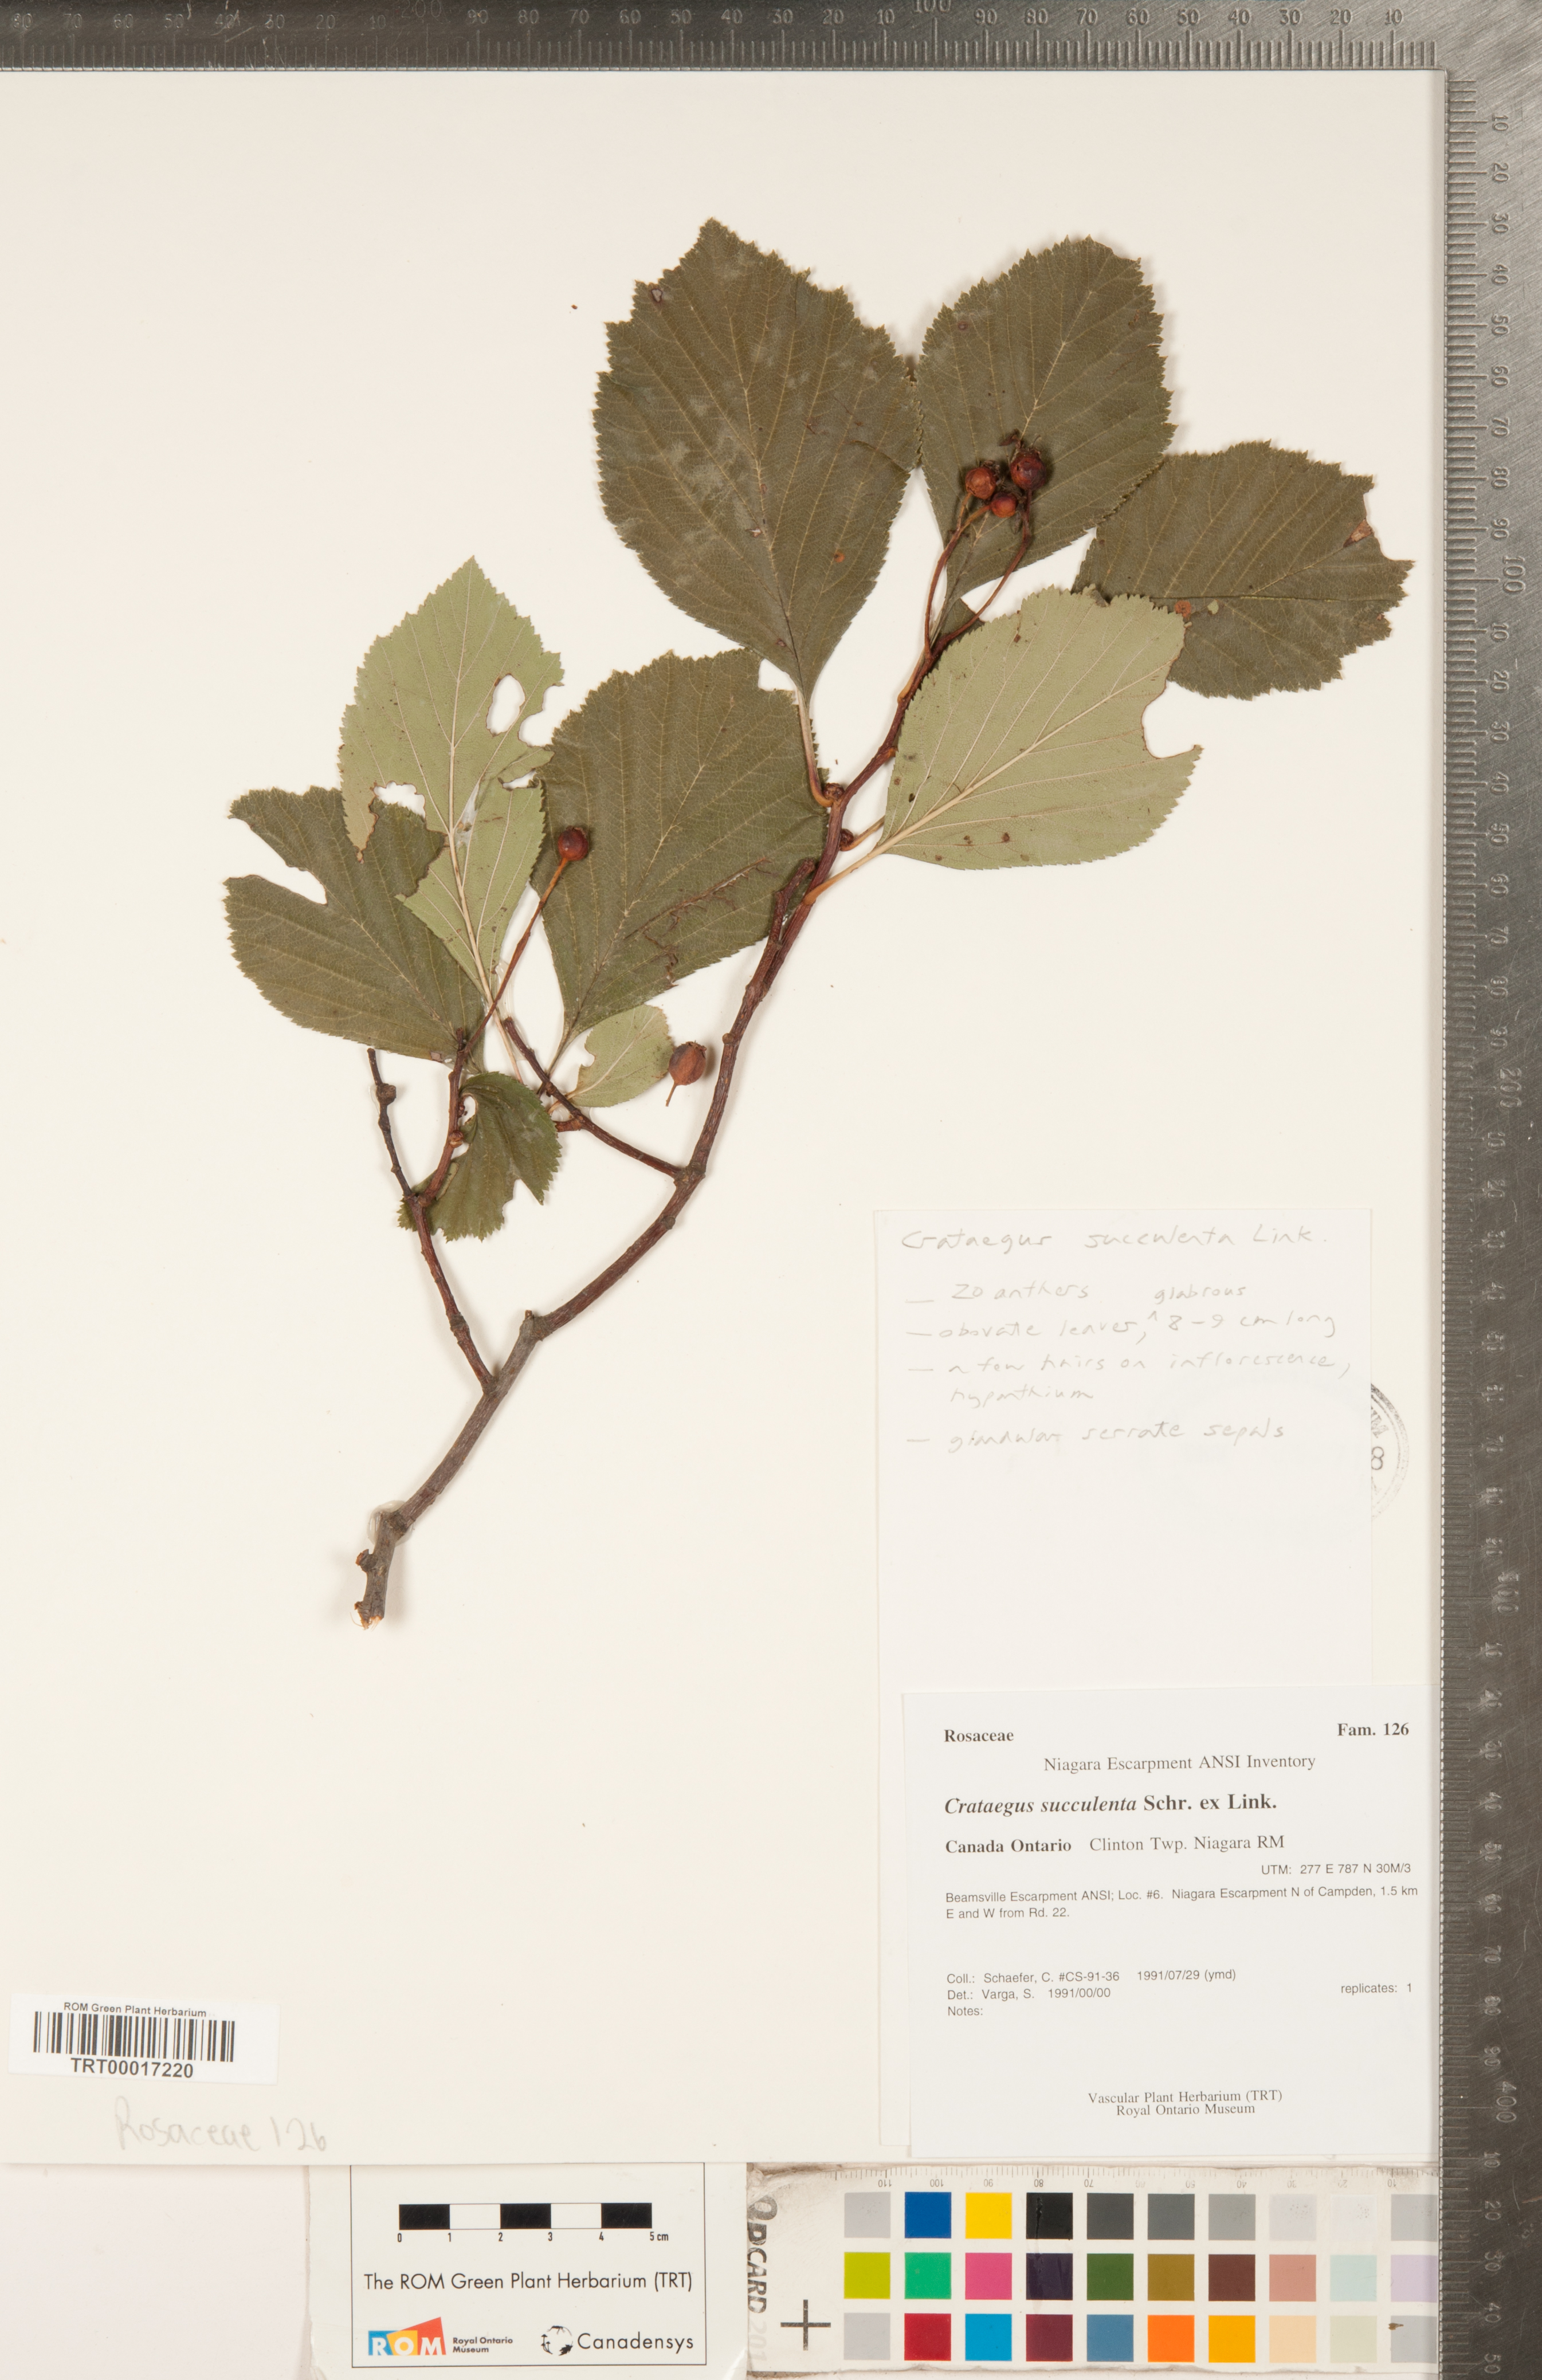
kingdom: Plantae
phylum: Tracheophyta
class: Magnoliopsida
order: Rosales
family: Rosaceae
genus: Crataegus
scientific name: Crataegus succulenta
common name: Fleshy hawthorn
